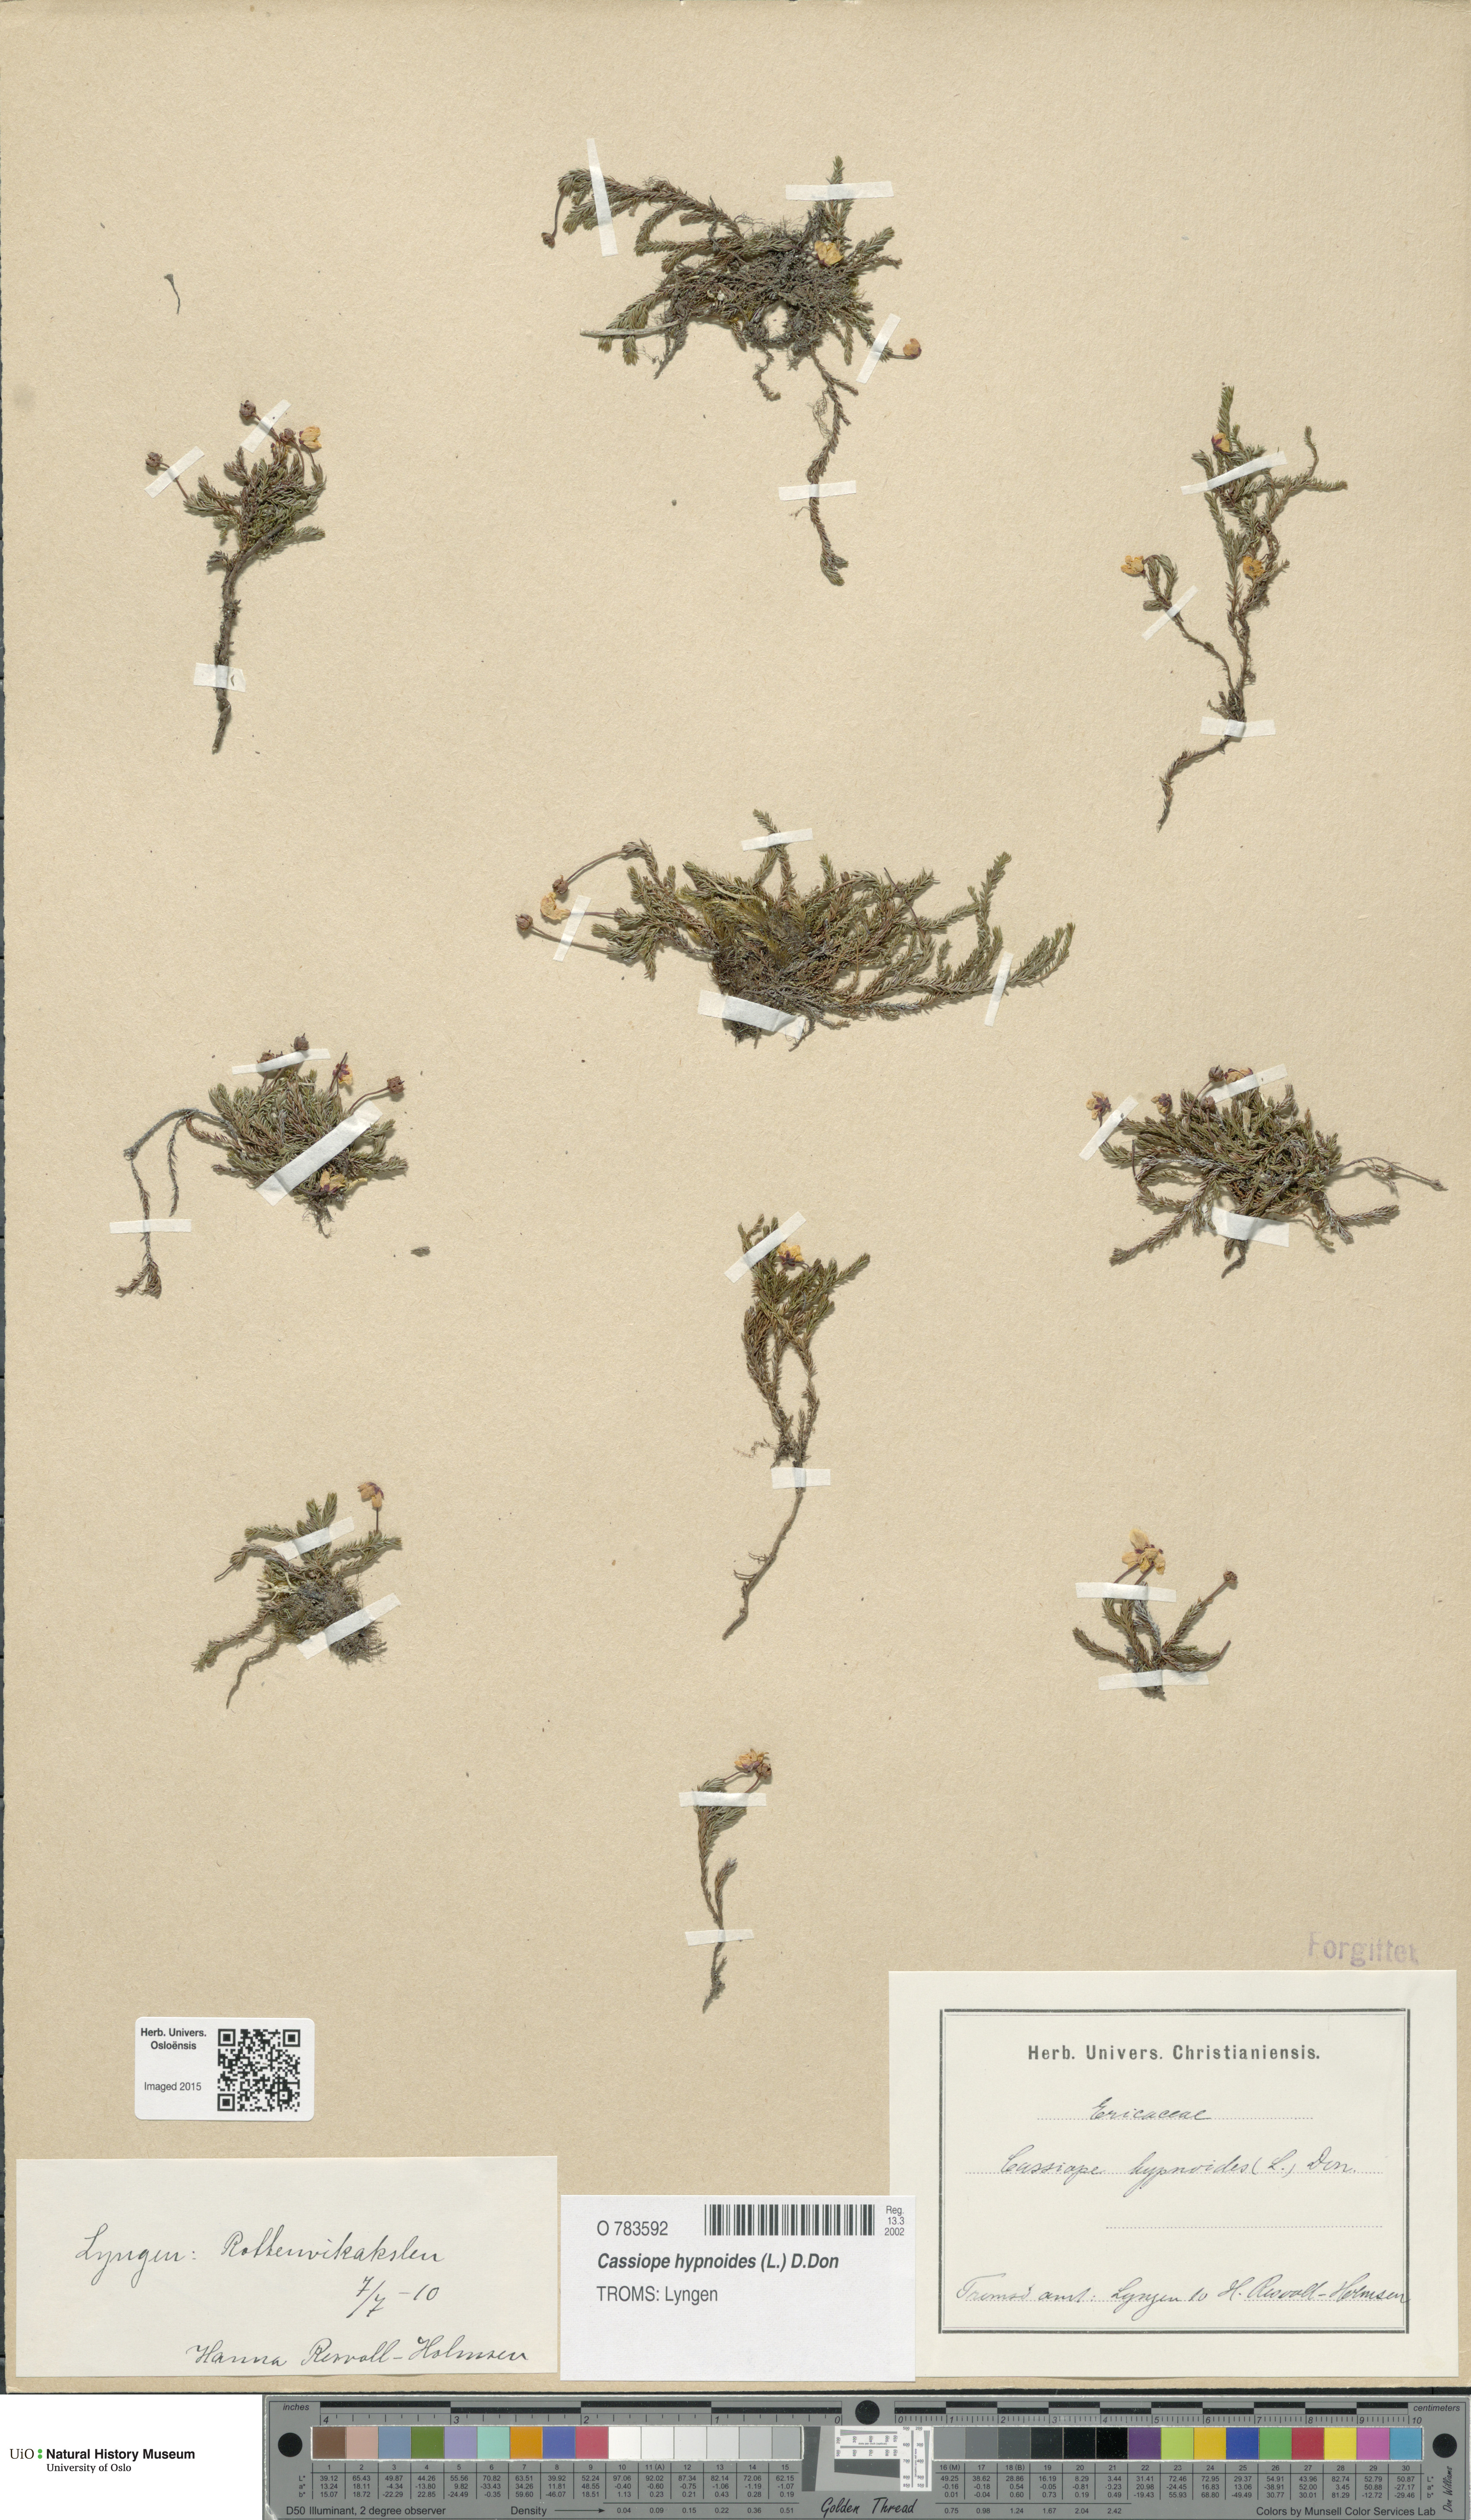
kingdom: Plantae
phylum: Tracheophyta
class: Magnoliopsida
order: Ericales
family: Ericaceae
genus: Harrimanella
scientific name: Harrimanella hypnoides
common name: Moss bell heather
